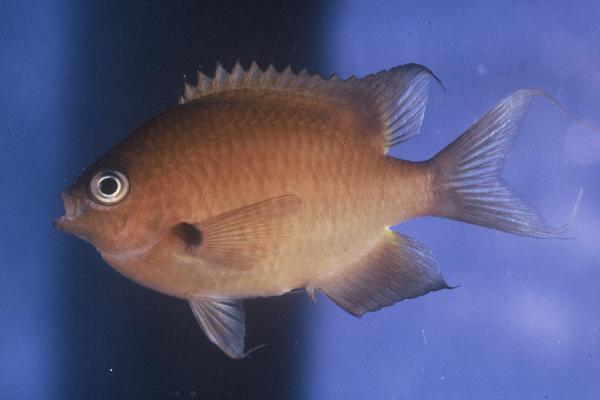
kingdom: Animalia
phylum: Chordata
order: Perciformes
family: Pomacentridae
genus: Chromis
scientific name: Chromis agilis
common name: Bronze reef chromis
